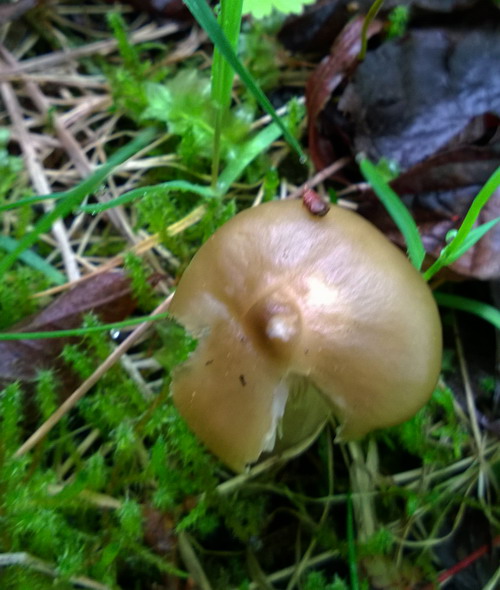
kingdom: Fungi
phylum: Basidiomycota
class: Agaricomycetes
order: Agaricales
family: Entolomataceae
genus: Entoloma
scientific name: Entoloma clypeatum
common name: flammet rødblad
